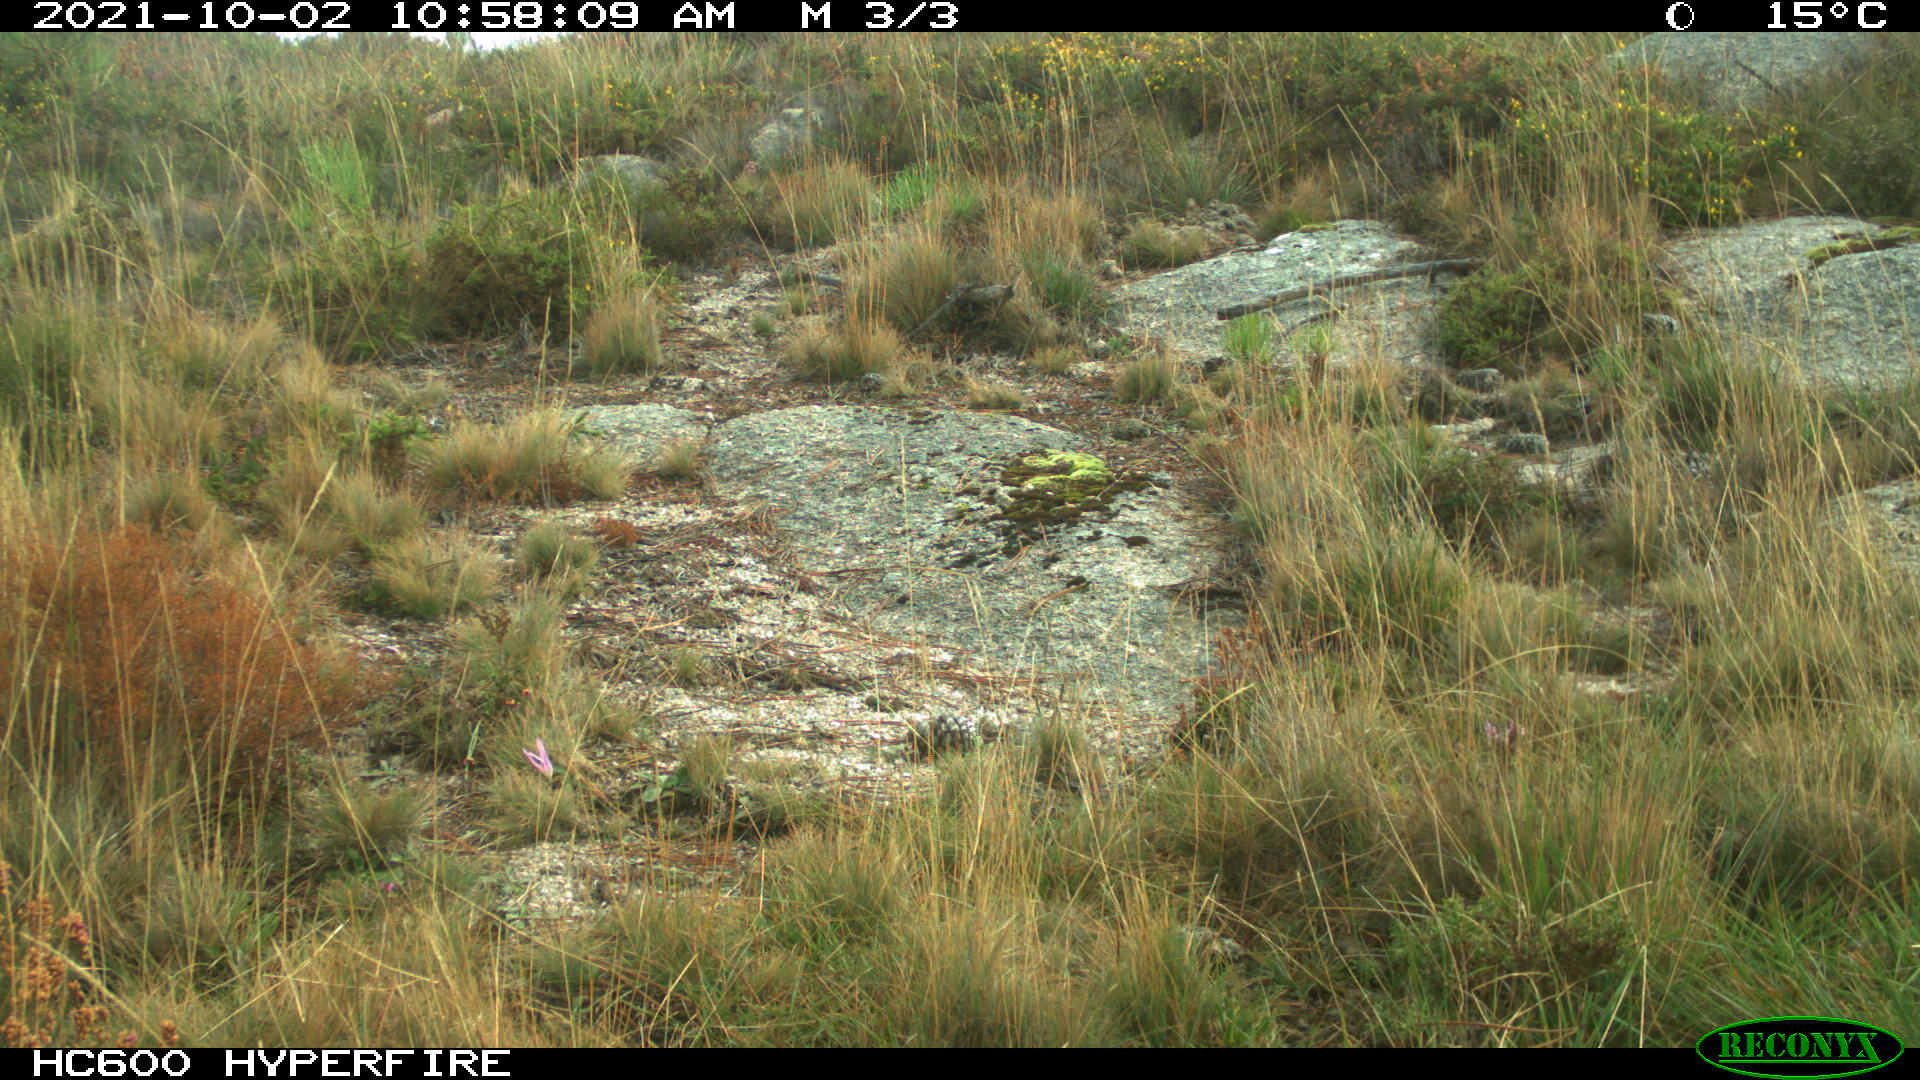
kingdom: Animalia
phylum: Chordata
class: Mammalia
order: Artiodactyla
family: Bovidae
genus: Bos
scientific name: Bos taurus
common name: Domesticated cattle
